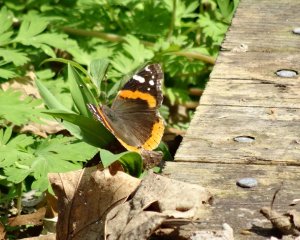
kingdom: Animalia
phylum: Arthropoda
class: Insecta
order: Lepidoptera
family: Nymphalidae
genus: Vanessa
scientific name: Vanessa atalanta
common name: Red Admiral
